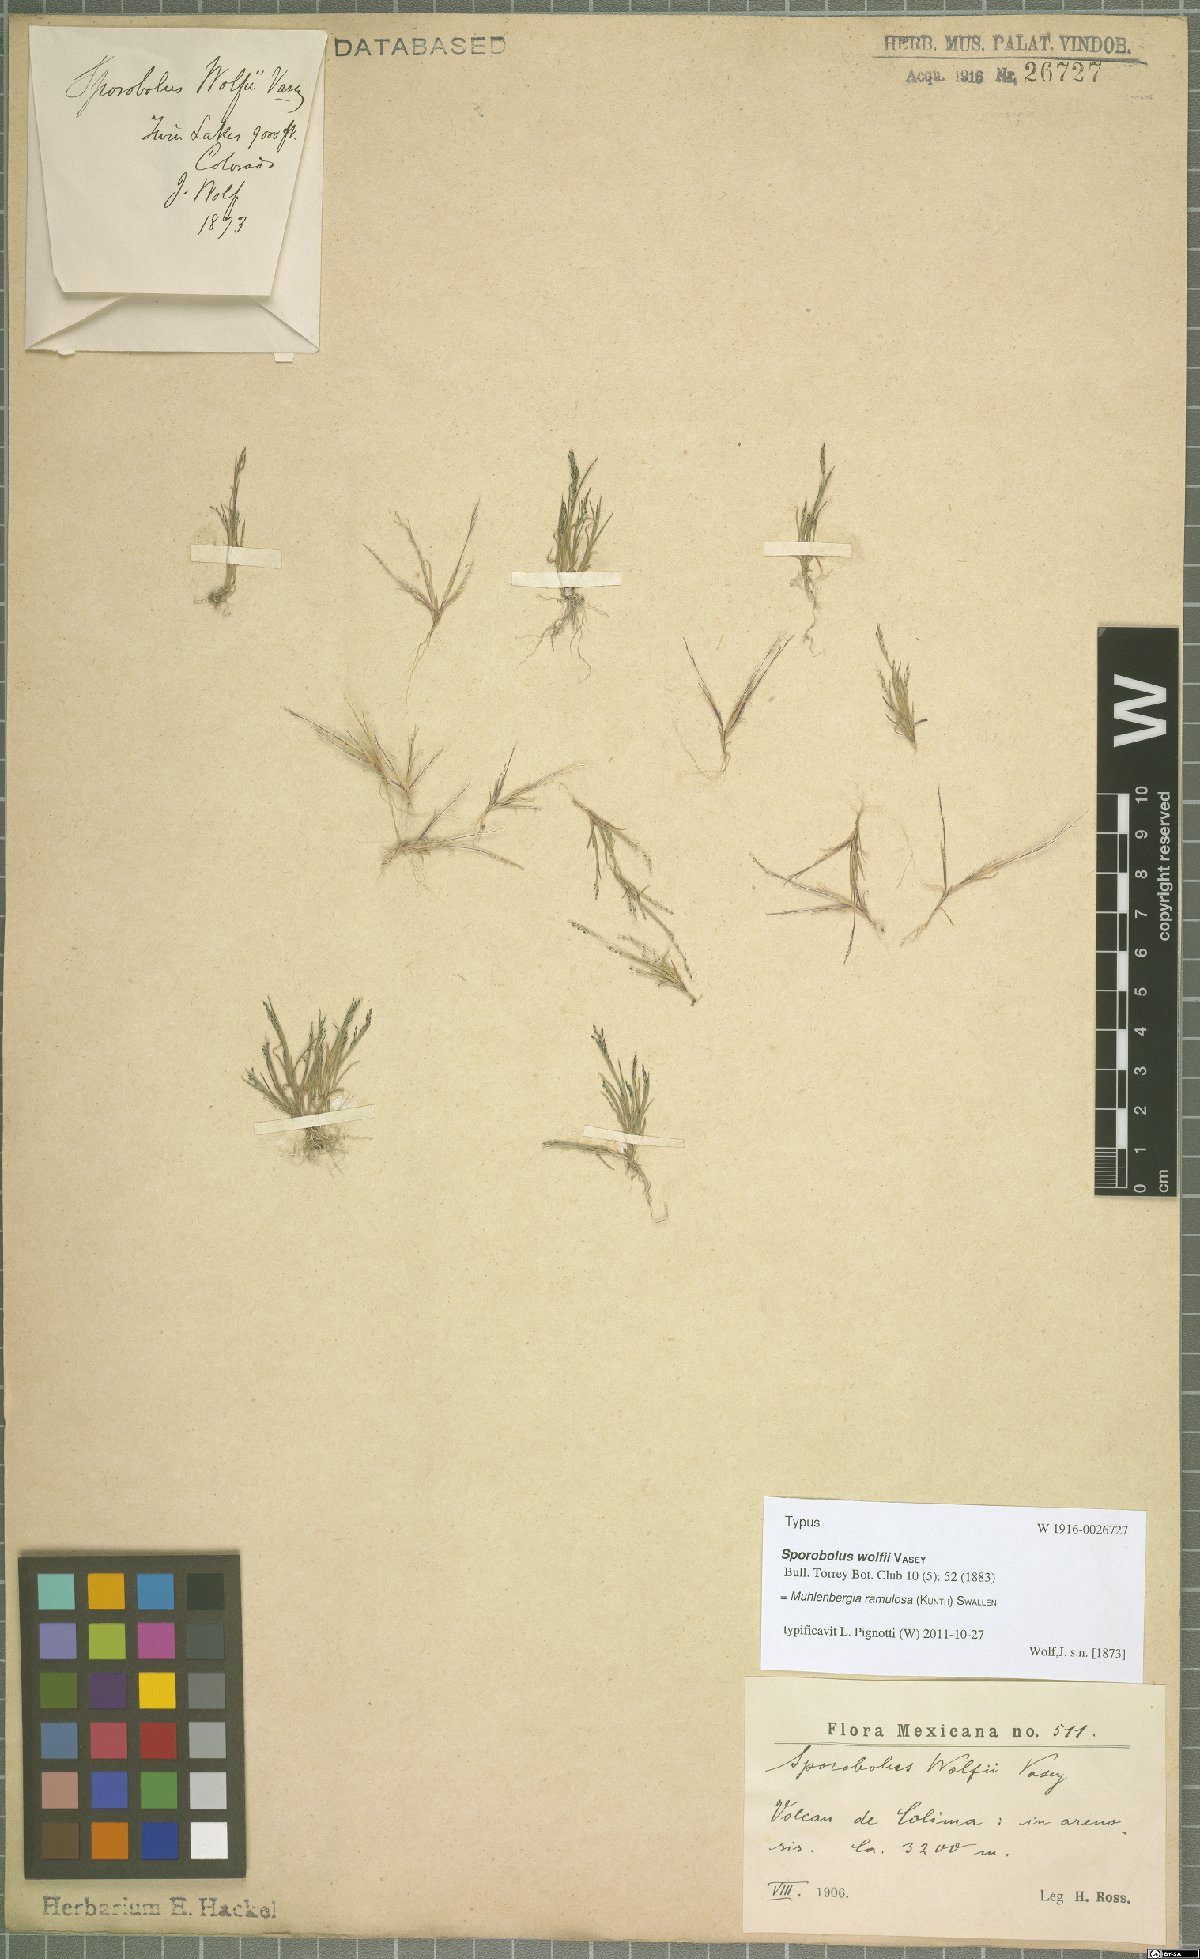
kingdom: Plantae
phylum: Tracheophyta
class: Liliopsida
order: Poales
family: Poaceae
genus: Muhlenbergia
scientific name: Muhlenbergia ramulosa
